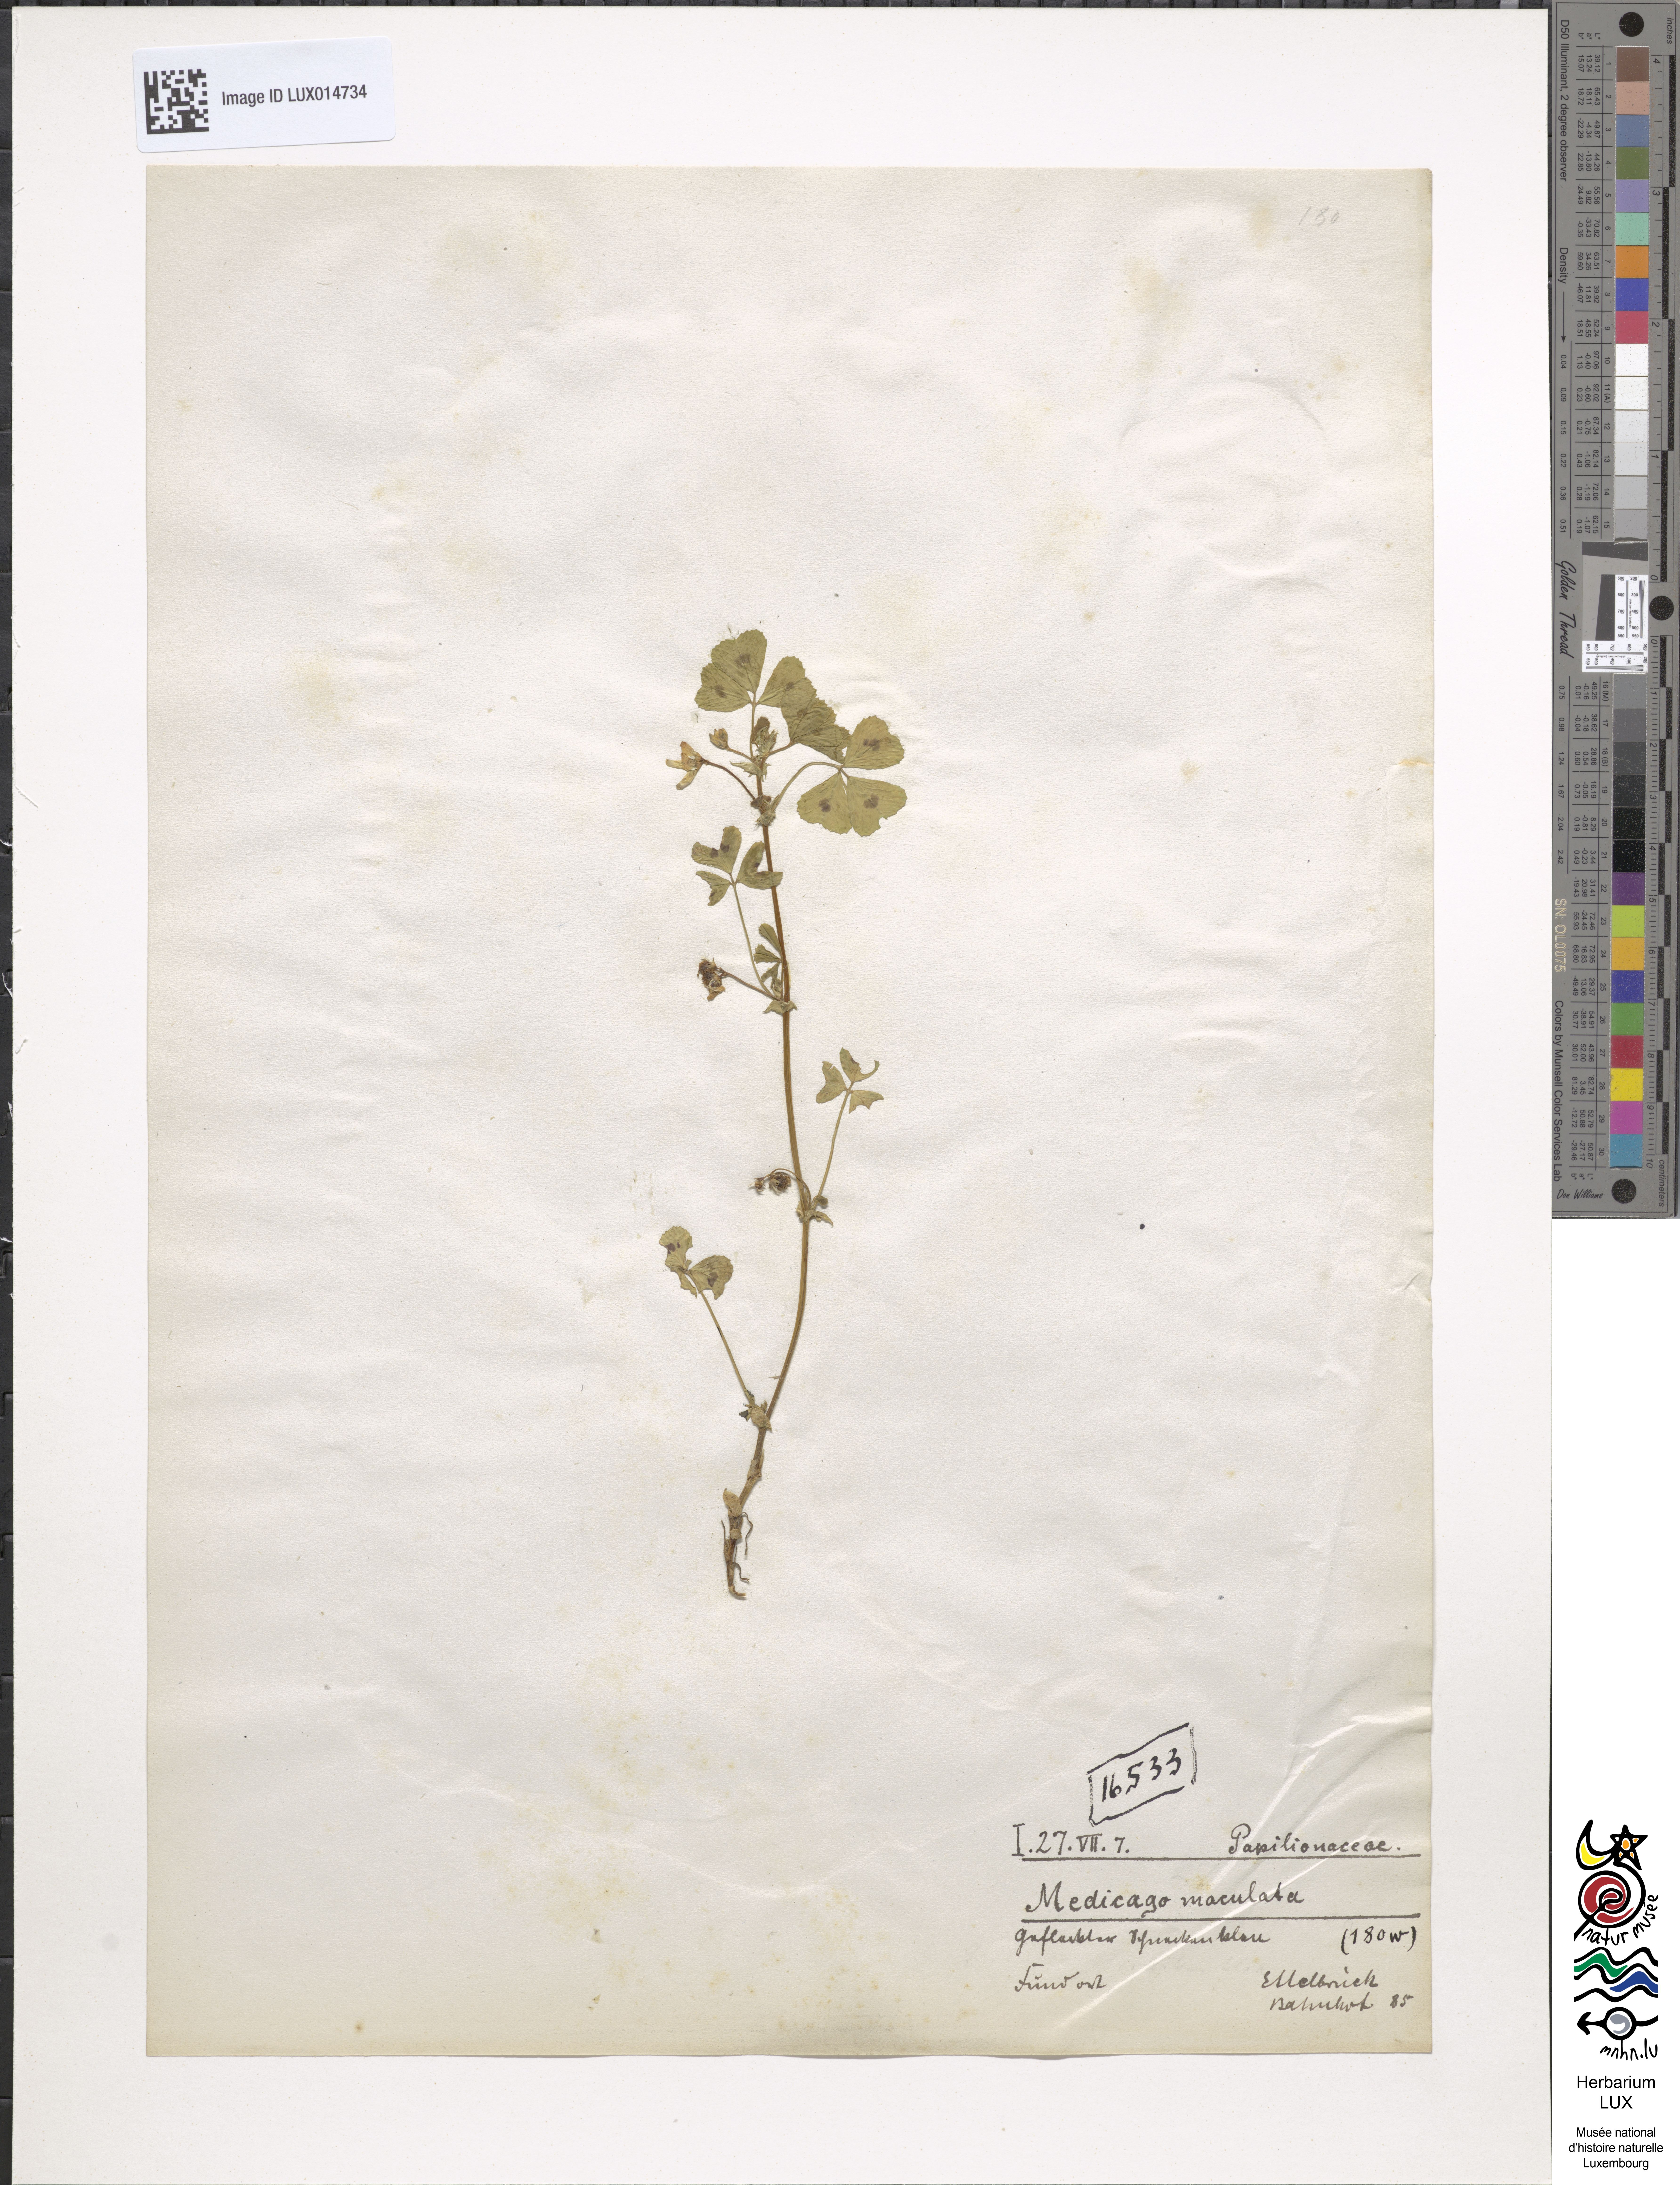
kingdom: Plantae
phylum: Tracheophyta
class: Magnoliopsida
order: Fabales
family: Fabaceae
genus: Medicago
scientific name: Medicago arabica
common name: Spotted medick
